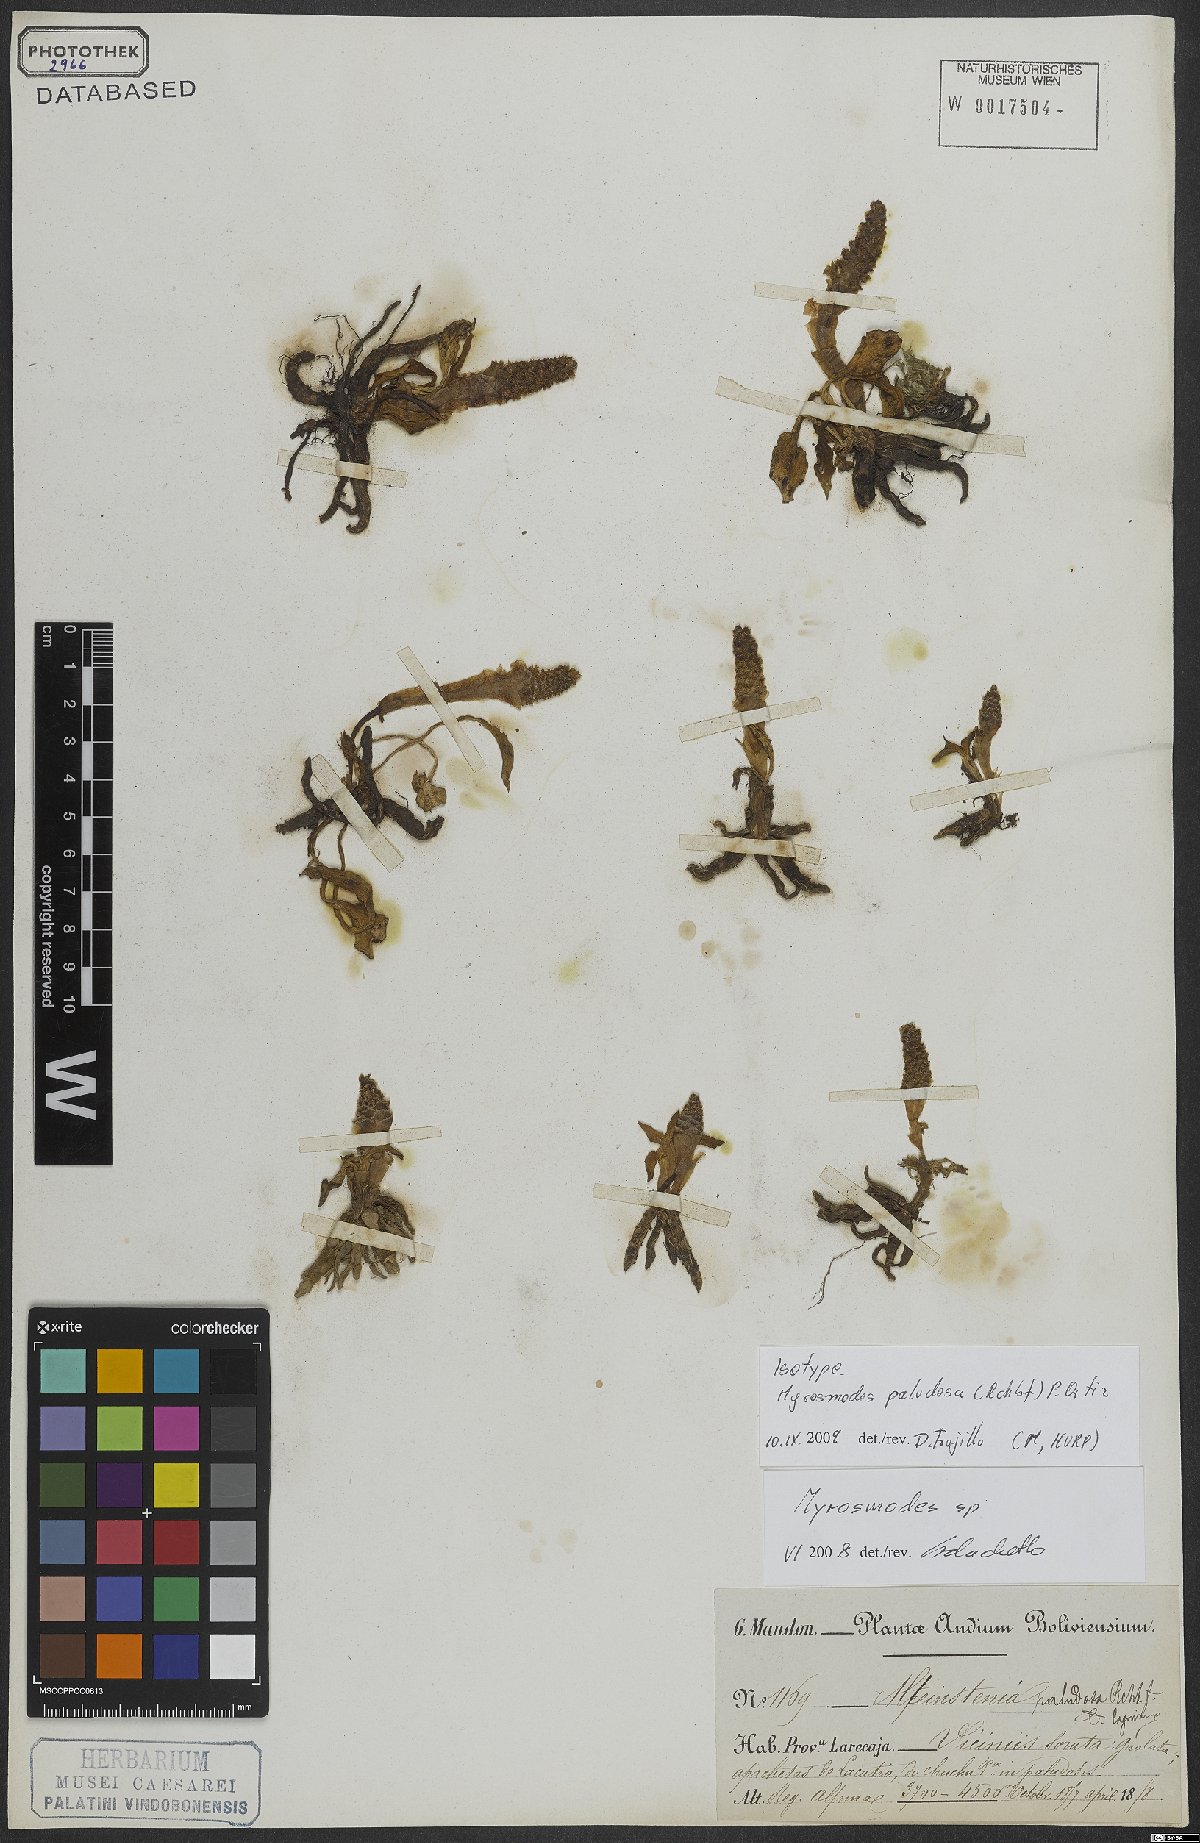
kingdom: Plantae
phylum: Tracheophyta
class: Liliopsida
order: Asparagales
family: Orchidaceae
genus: Myrosmodes
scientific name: Myrosmodes paludosa
